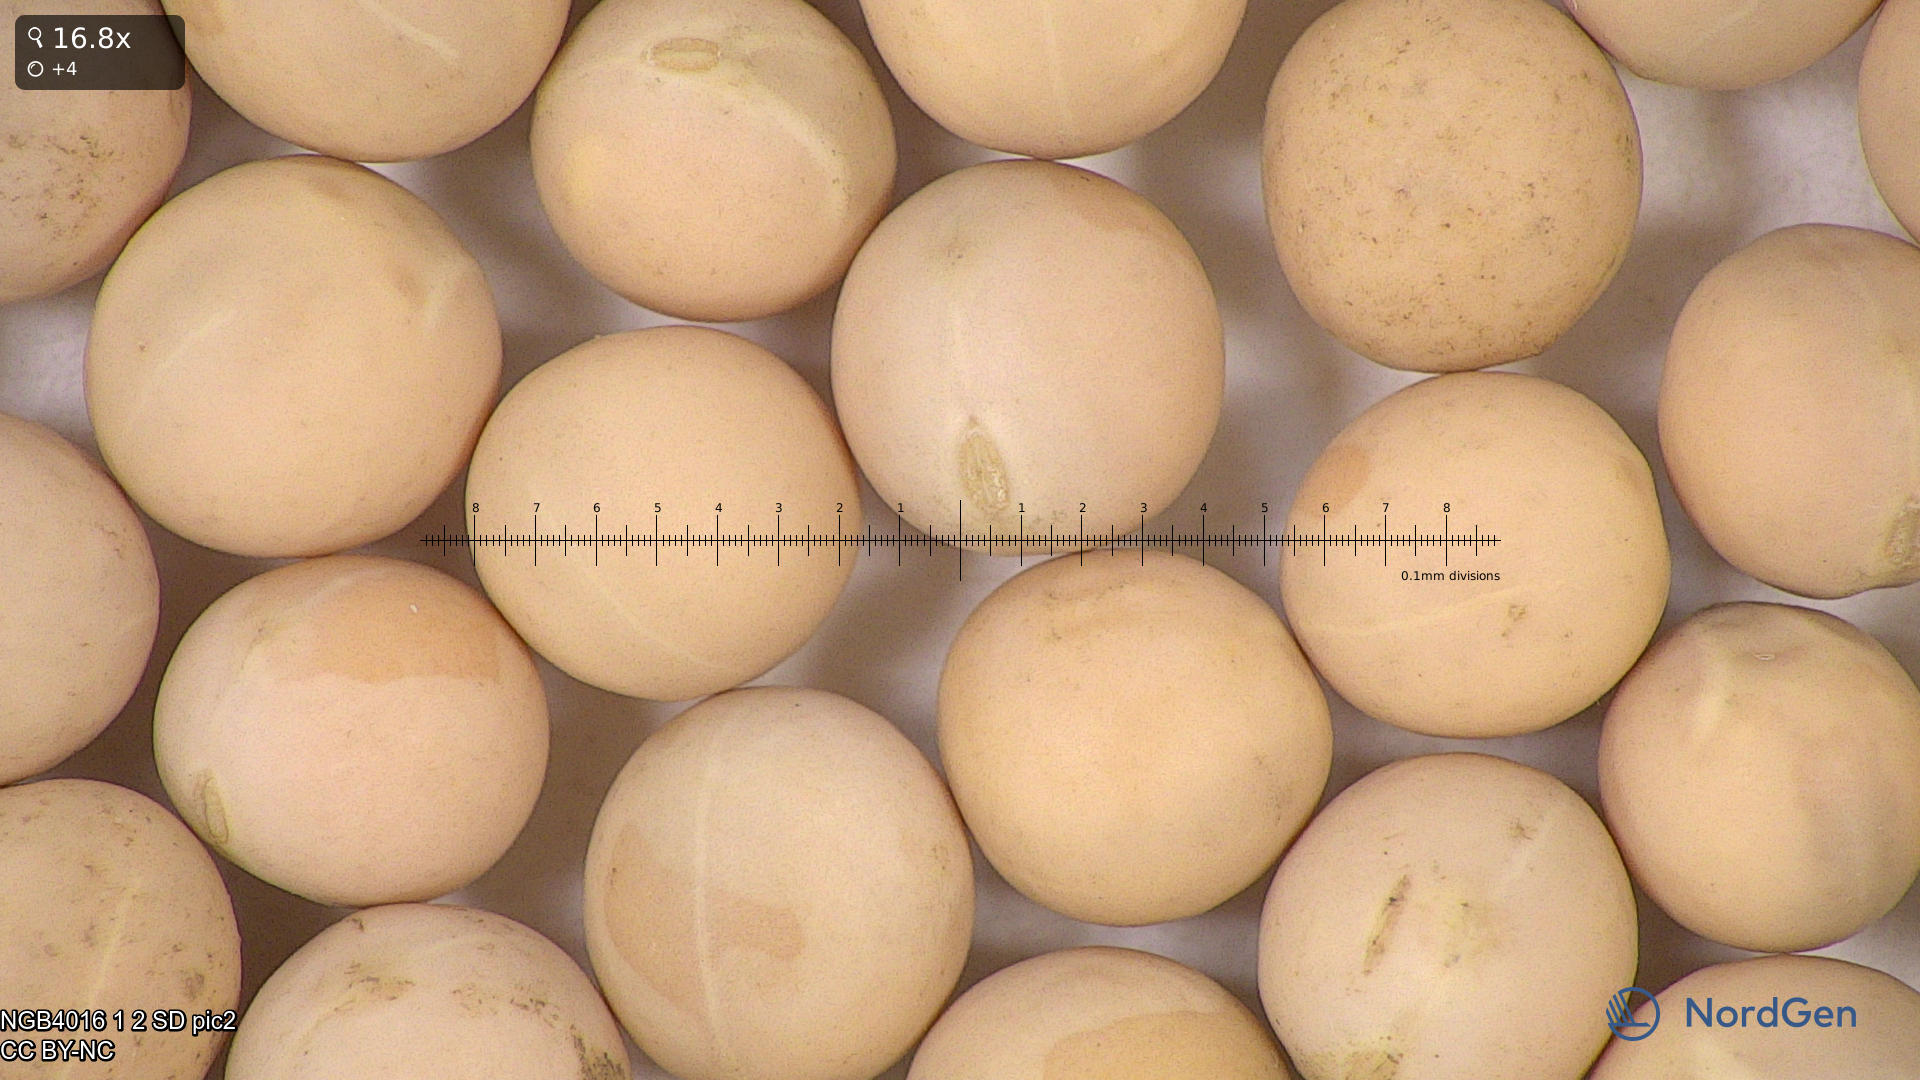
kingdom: Plantae
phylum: Tracheophyta
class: Magnoliopsida
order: Fabales
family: Fabaceae
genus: Lathyrus
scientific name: Lathyrus oleraceus
